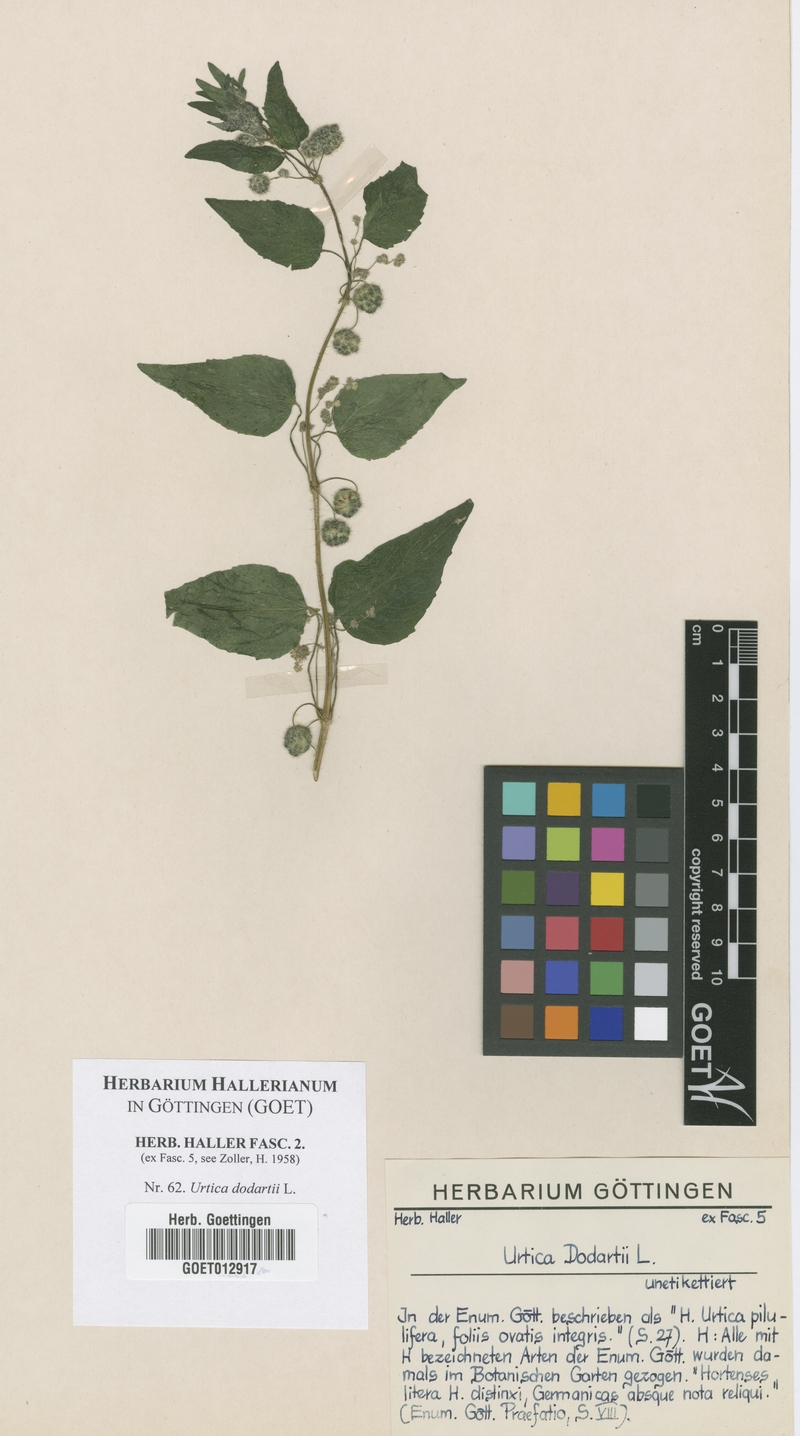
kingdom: Plantae
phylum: Tracheophyta
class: Magnoliopsida
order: Rosales
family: Urticaceae
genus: Urtica
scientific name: Urtica pilulifera
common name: Roman nettle
